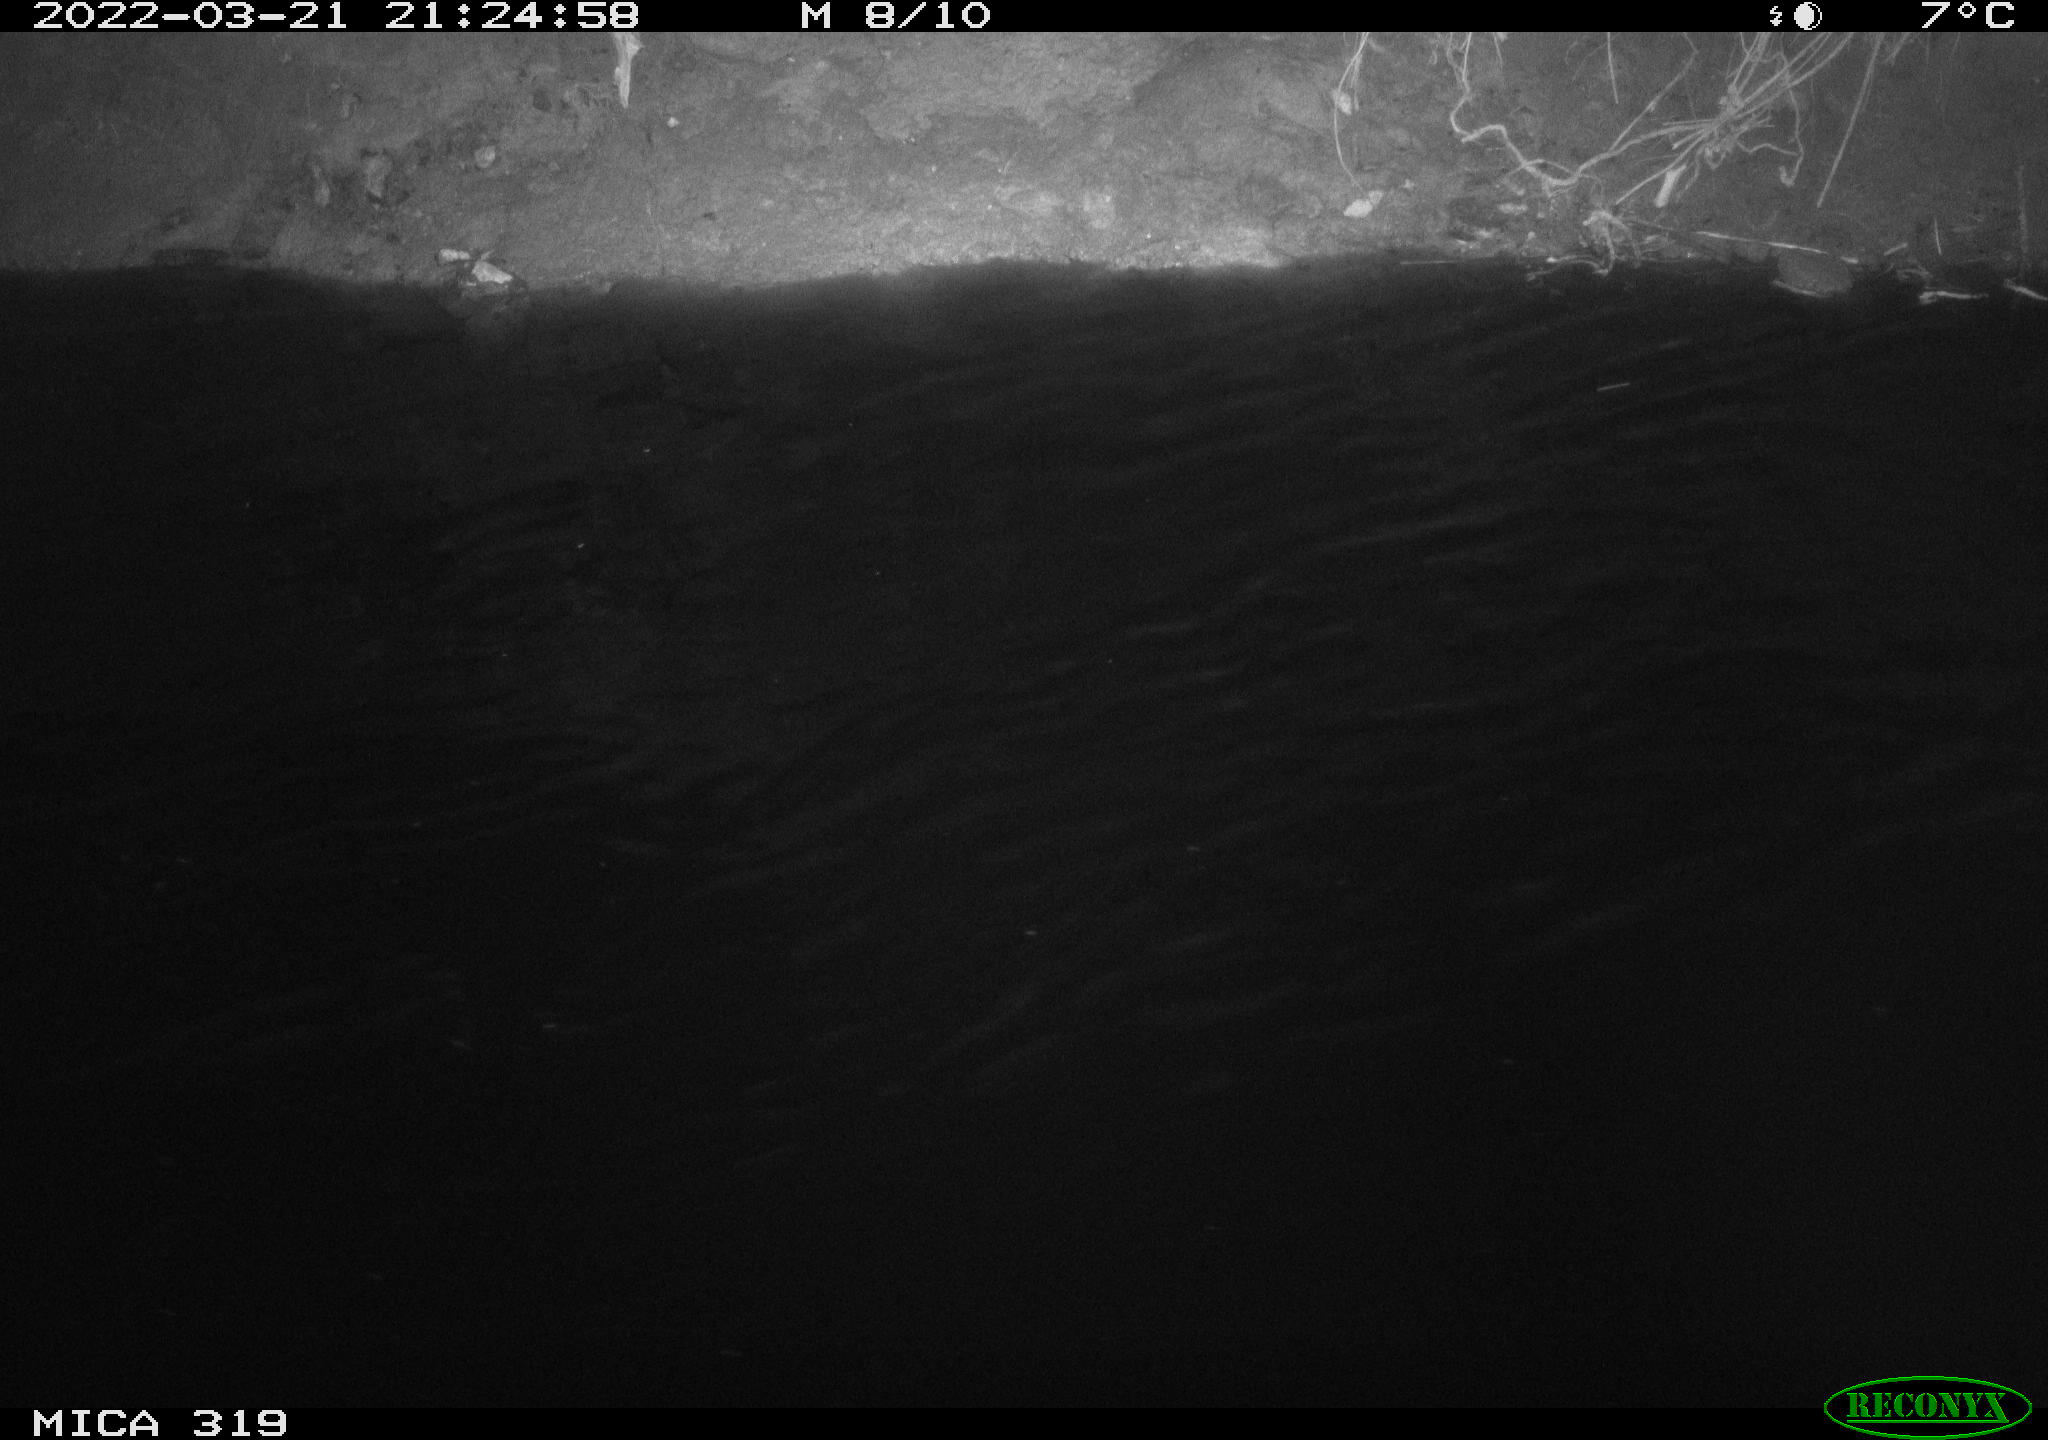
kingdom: Animalia
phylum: Chordata
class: Aves
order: Gruiformes
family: Rallidae
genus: Gallinula
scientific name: Gallinula chloropus
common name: Common moorhen
